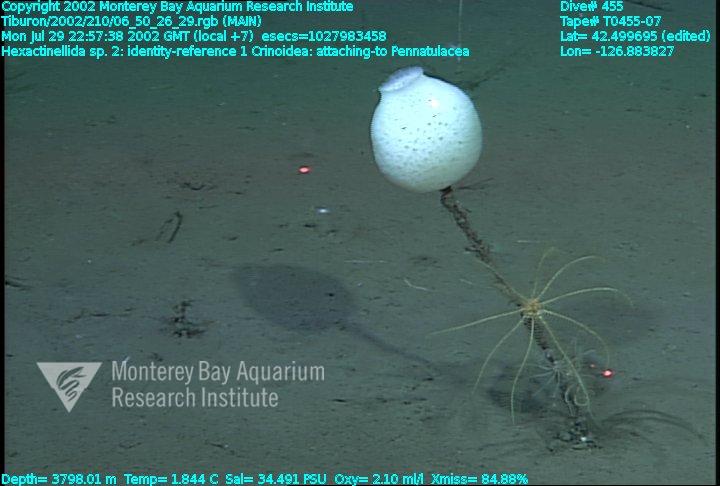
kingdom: Animalia
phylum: Porifera
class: Hexactinellida
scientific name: Hexactinellida
